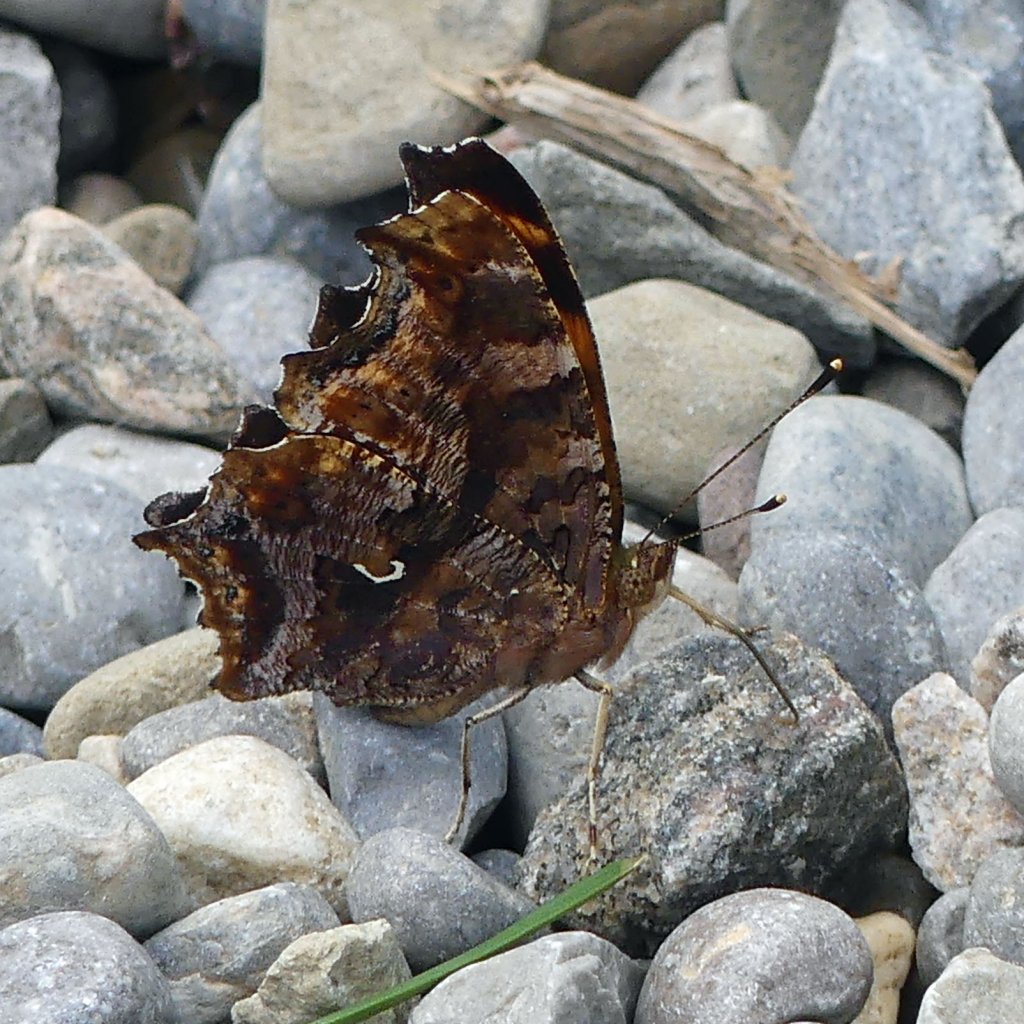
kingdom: Animalia
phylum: Arthropoda
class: Insecta
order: Lepidoptera
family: Nymphalidae
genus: Polygonia
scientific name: Polygonia comma
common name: Eastern Comma
